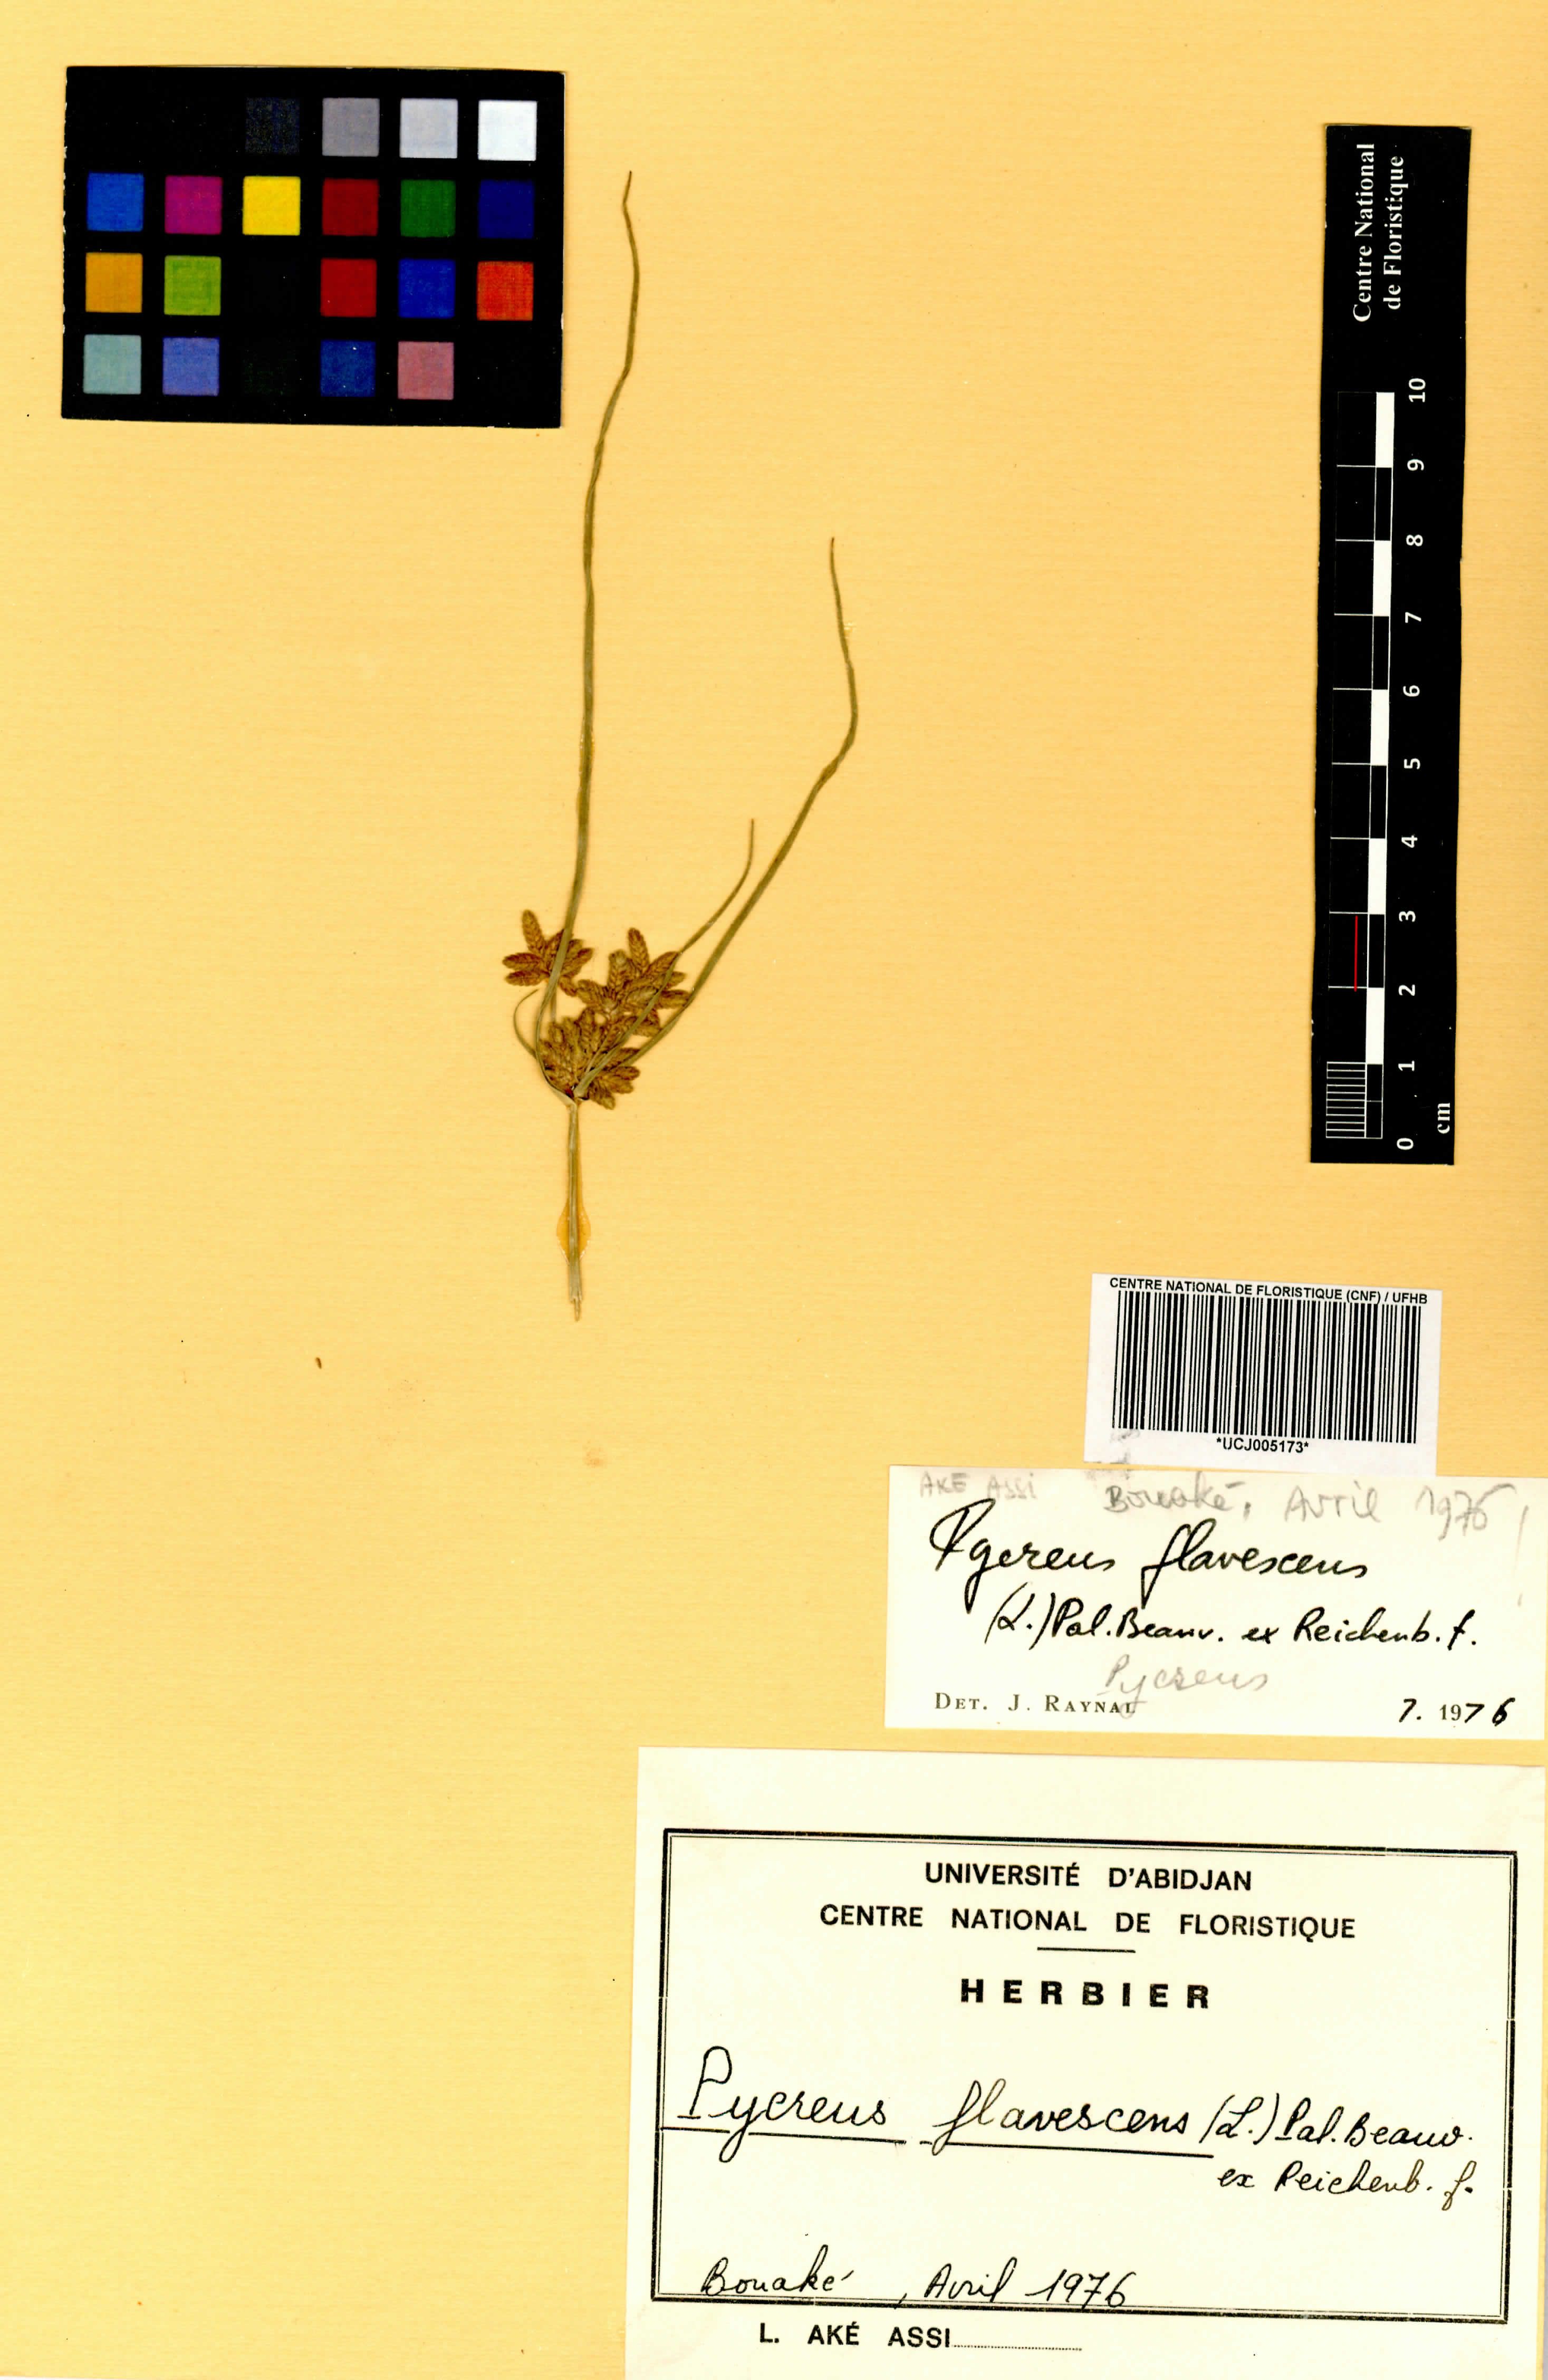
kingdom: Plantae
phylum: Tracheophyta
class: Liliopsida
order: Poales
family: Cyperaceae
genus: Cyperus
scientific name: Cyperus flavescens
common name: Yellow galingale
